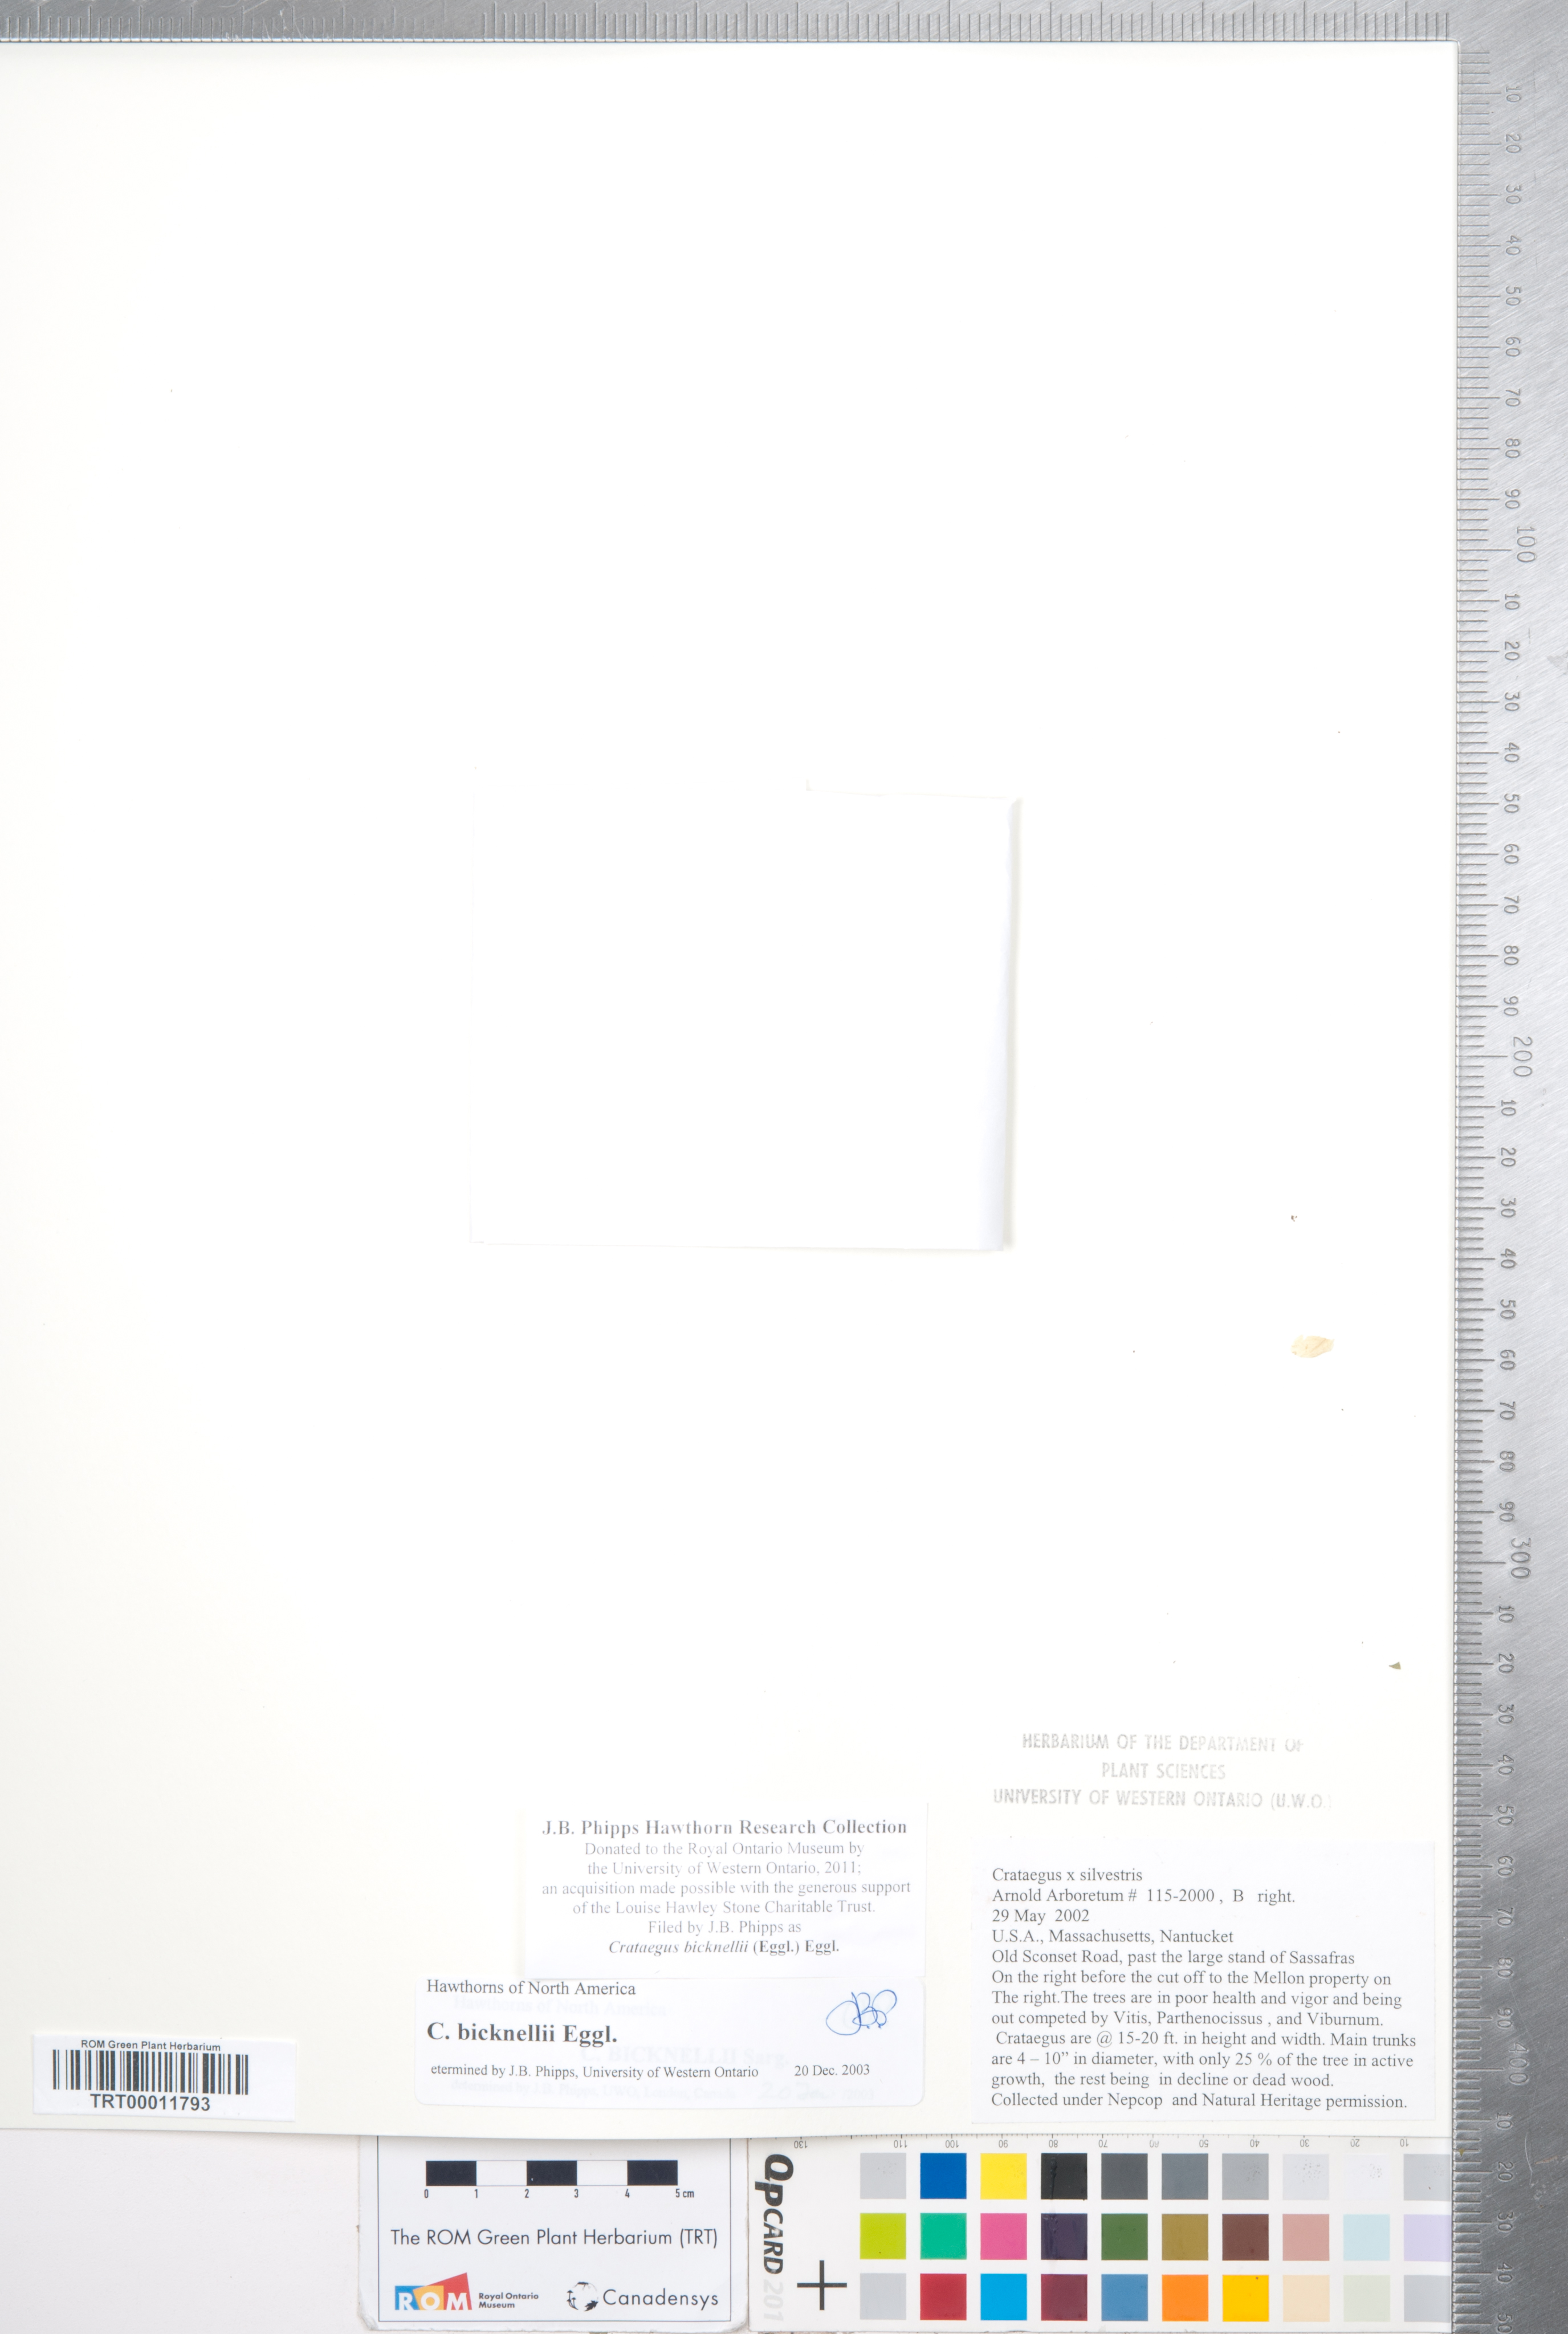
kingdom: Plantae
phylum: Tracheophyta
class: Magnoliopsida
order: Rosales
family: Rosaceae
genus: Crataegus
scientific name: Crataegus bicknellii
